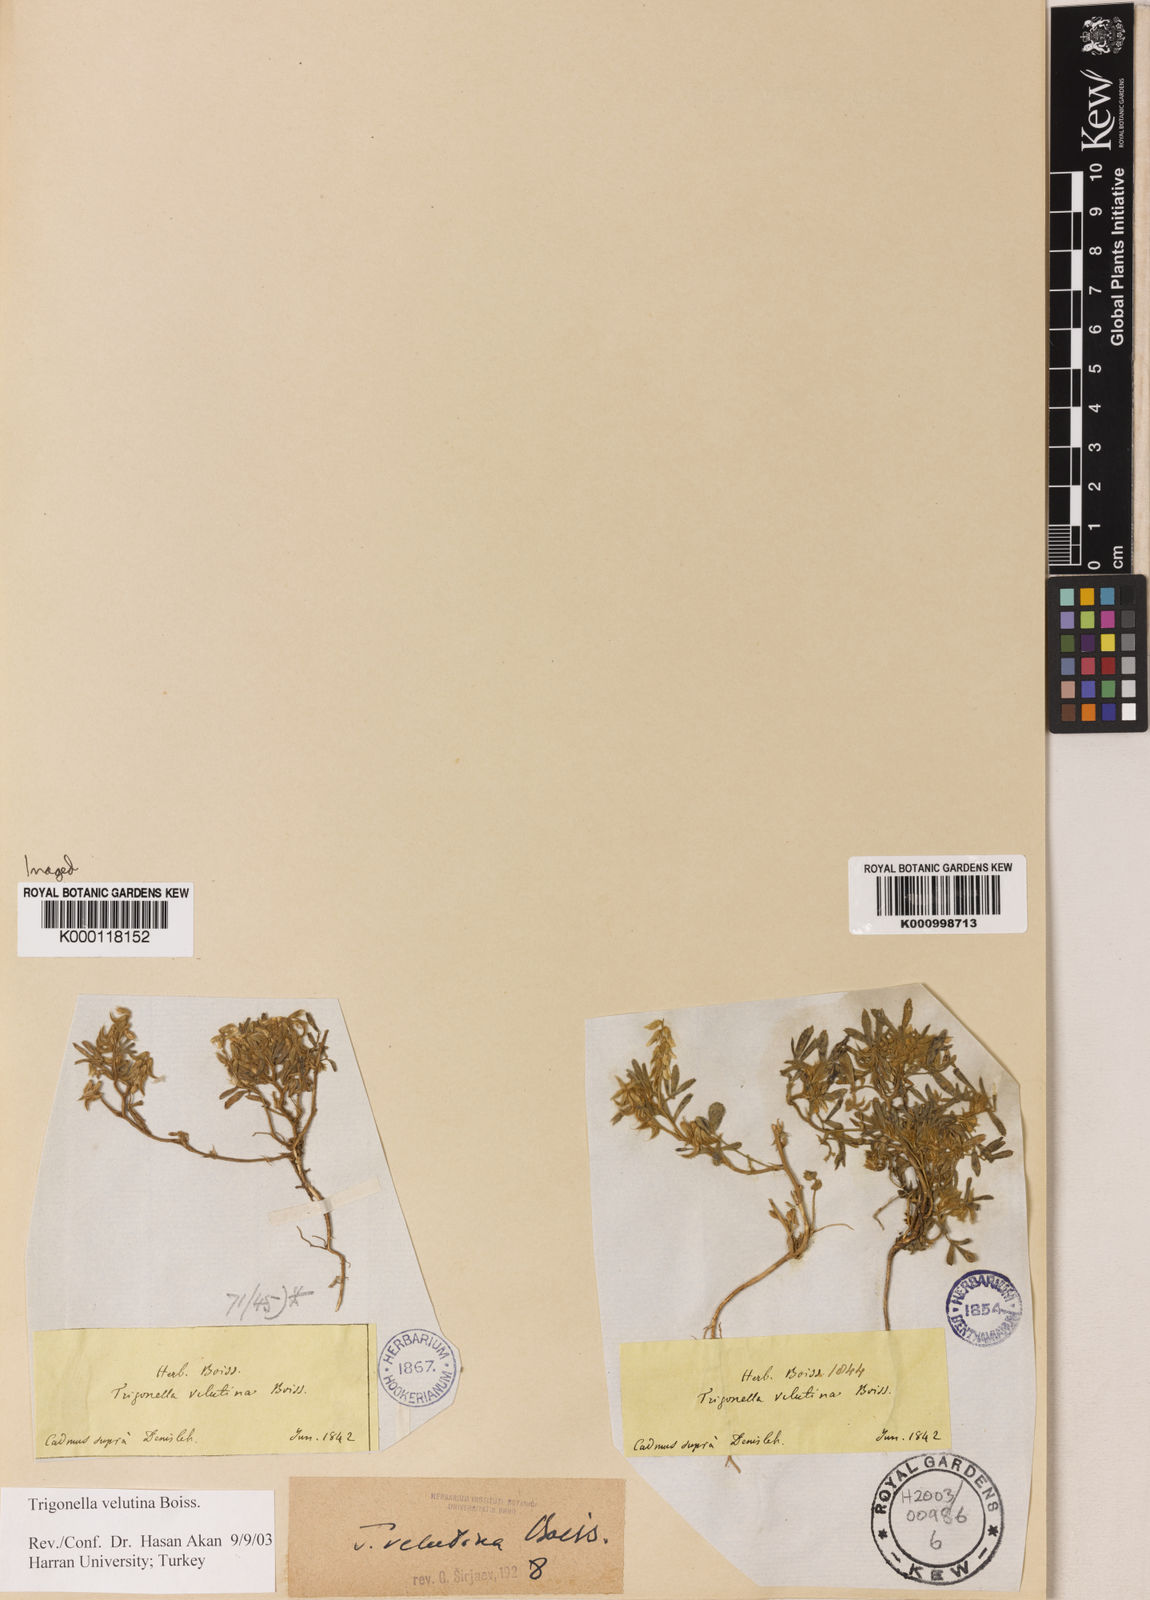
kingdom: Plantae
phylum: Tracheophyta
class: Magnoliopsida
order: Fabales
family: Fabaceae
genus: Trigonella
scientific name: Trigonella velutina
